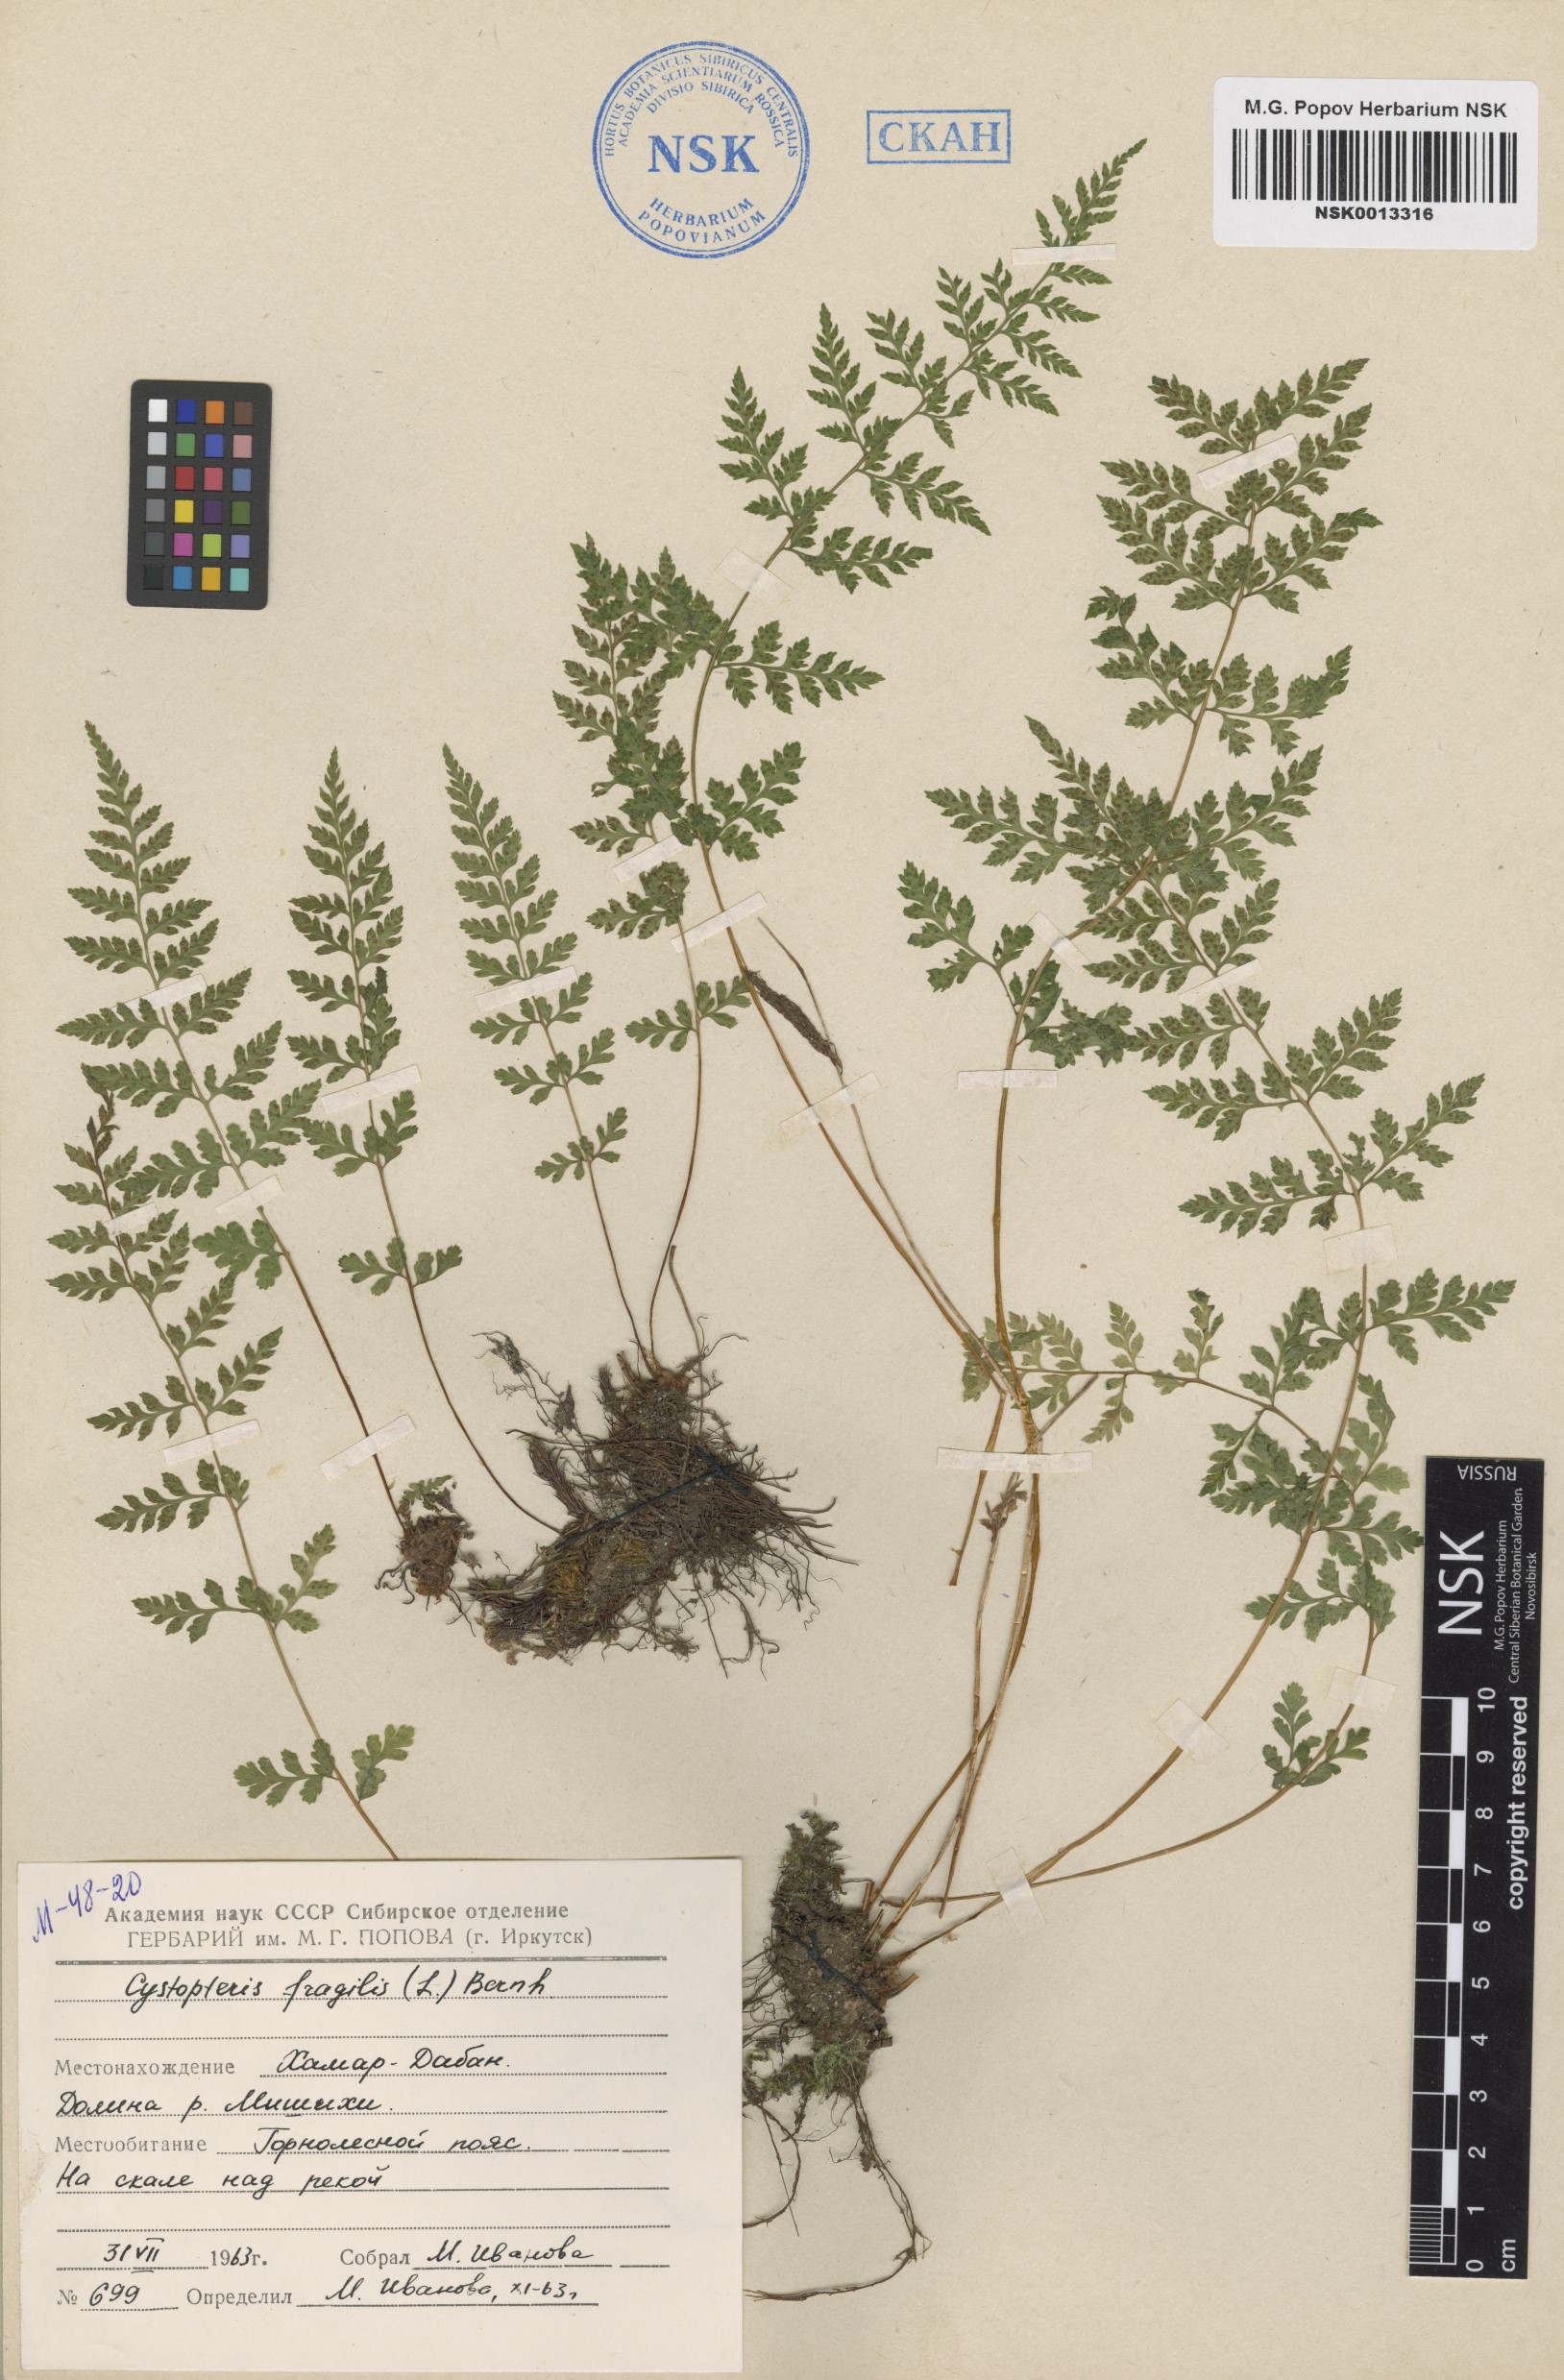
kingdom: Plantae
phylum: Tracheophyta
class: Polypodiopsida
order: Polypodiales
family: Cystopteridaceae
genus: Cystopteris
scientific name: Cystopteris fragilis
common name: Brittle bladder fern
